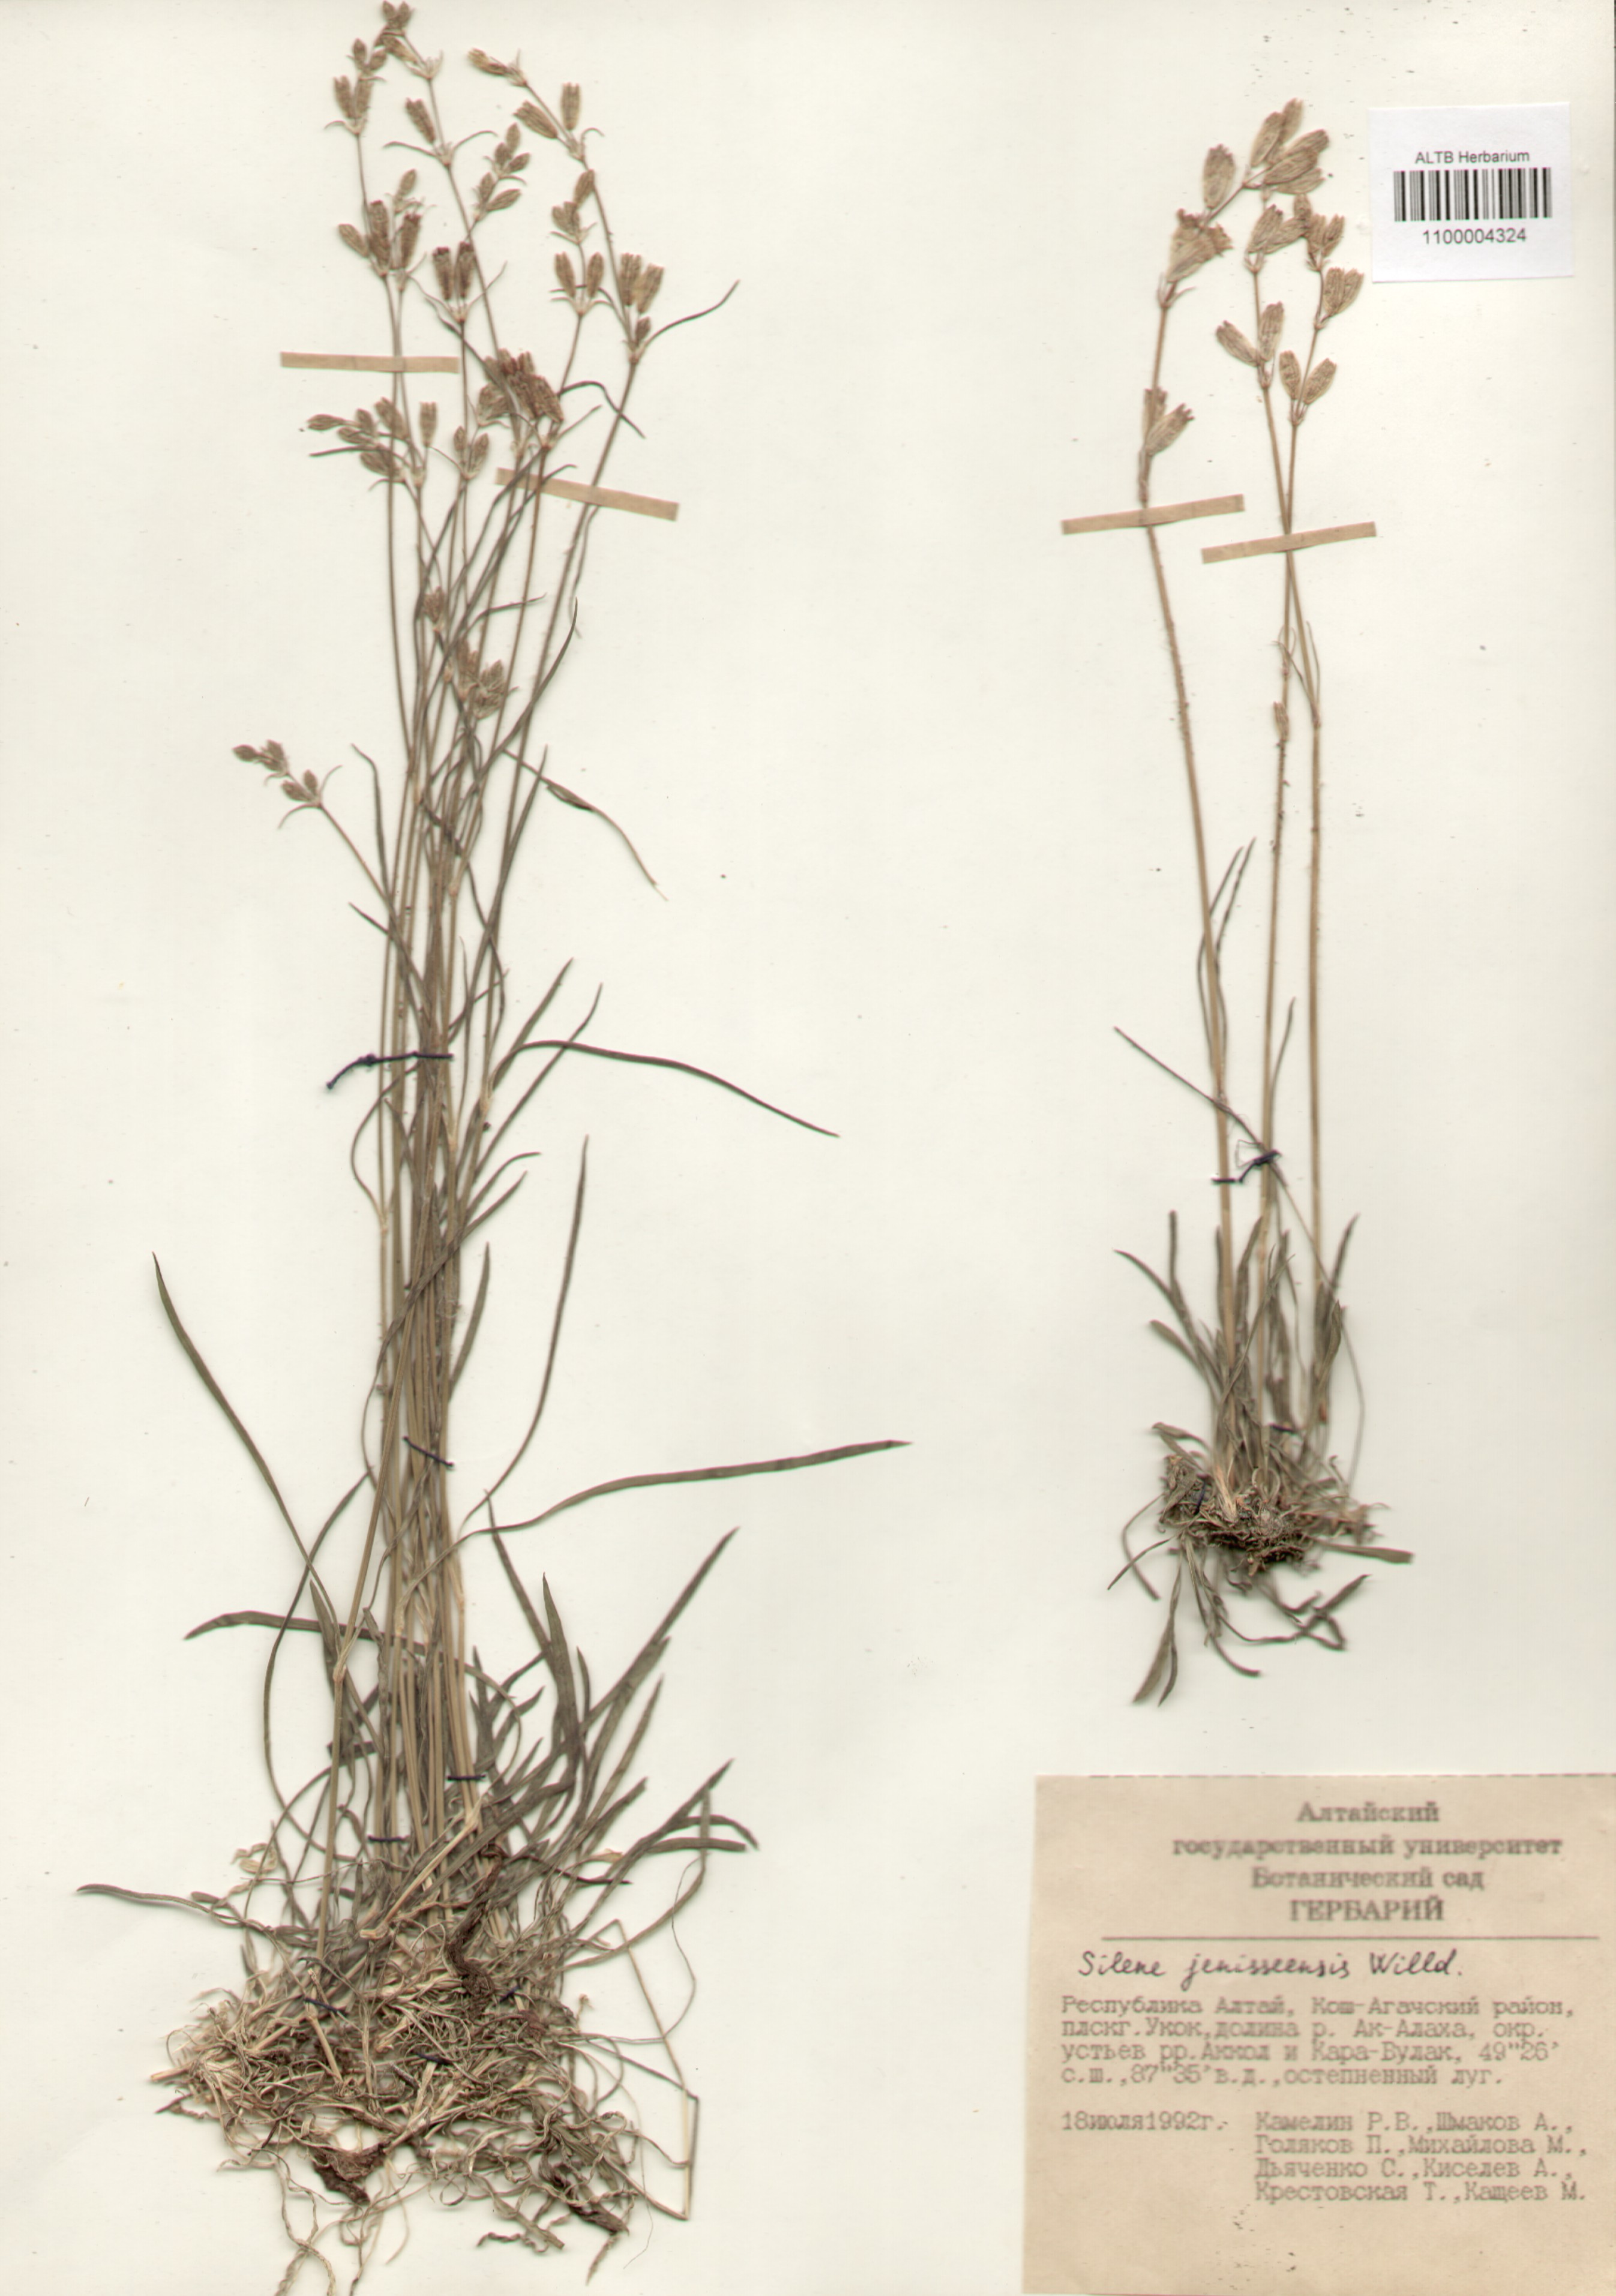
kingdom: Plantae
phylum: Tracheophyta
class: Magnoliopsida
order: Caryophyllales
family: Caryophyllaceae
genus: Silene
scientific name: Silene jeniseensis
